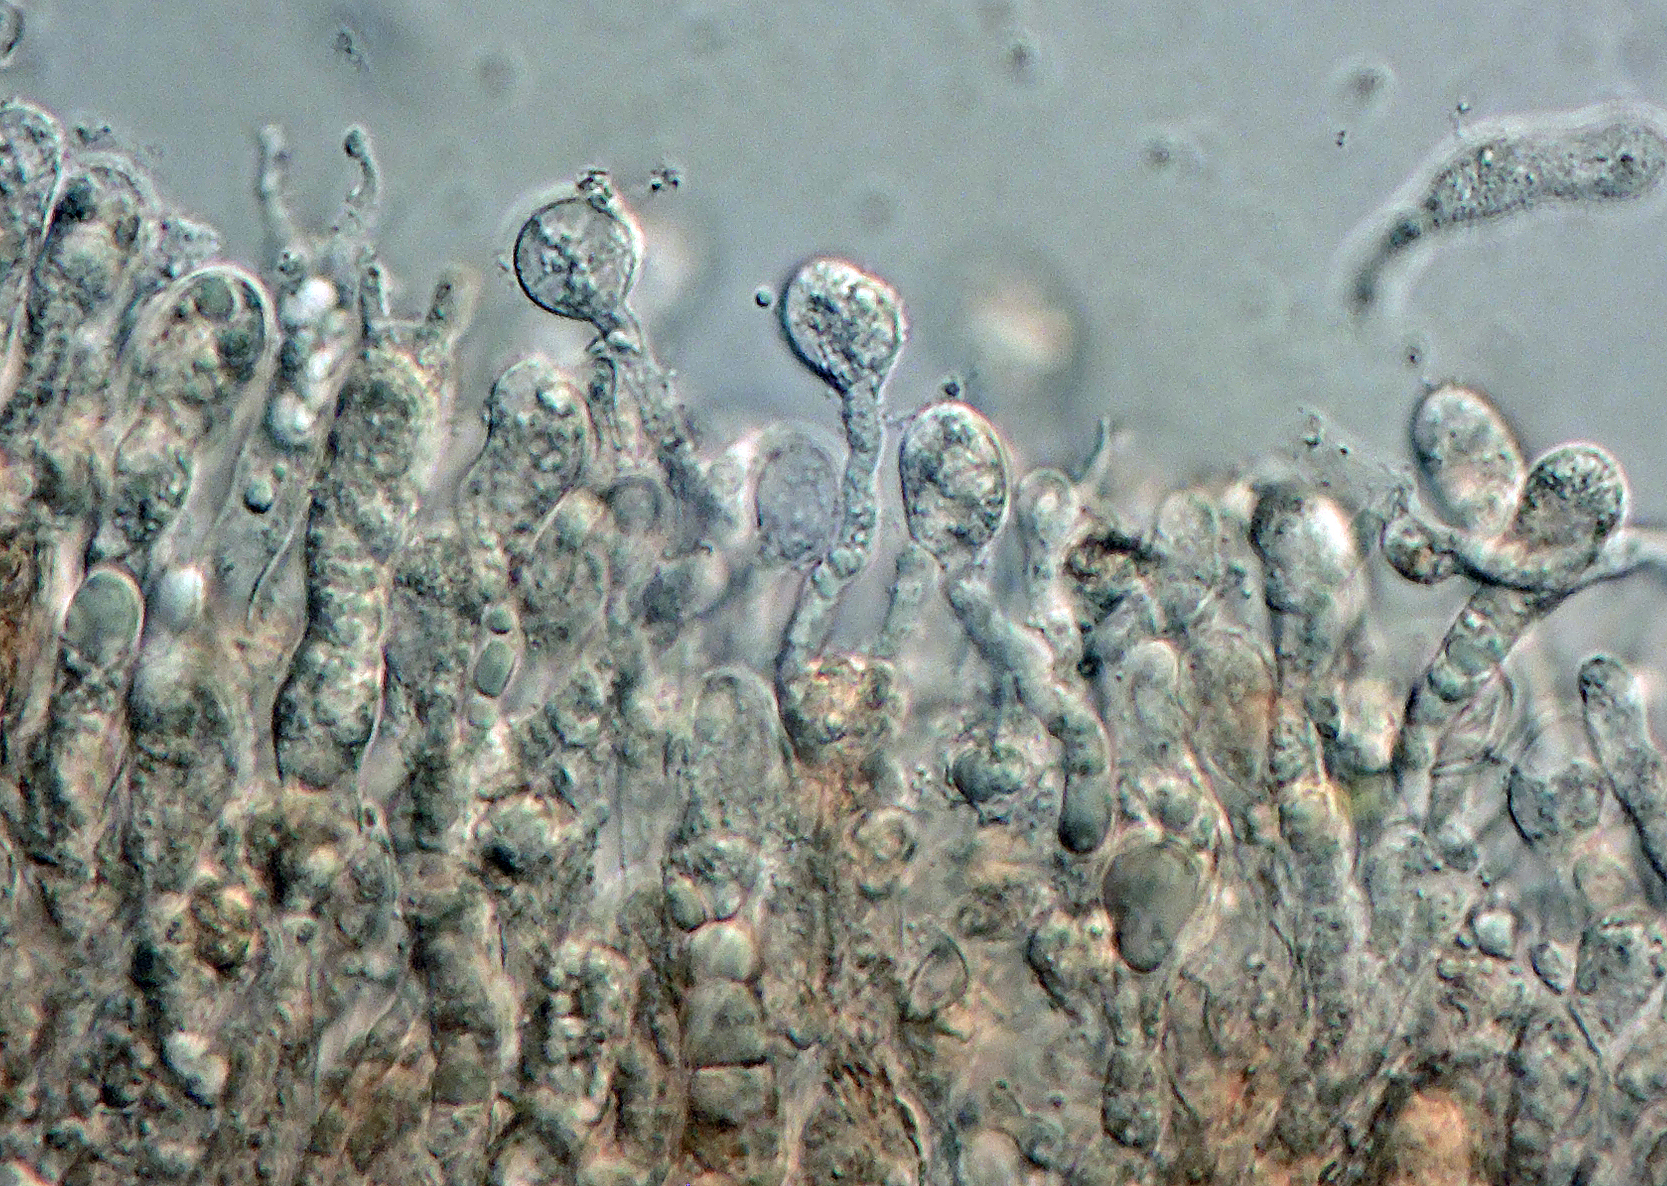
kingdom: Fungi
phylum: Basidiomycota
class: Agaricomycetes
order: Thelephorales
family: Thelephoraceae
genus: Pseudotomentella
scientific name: Pseudotomentella
